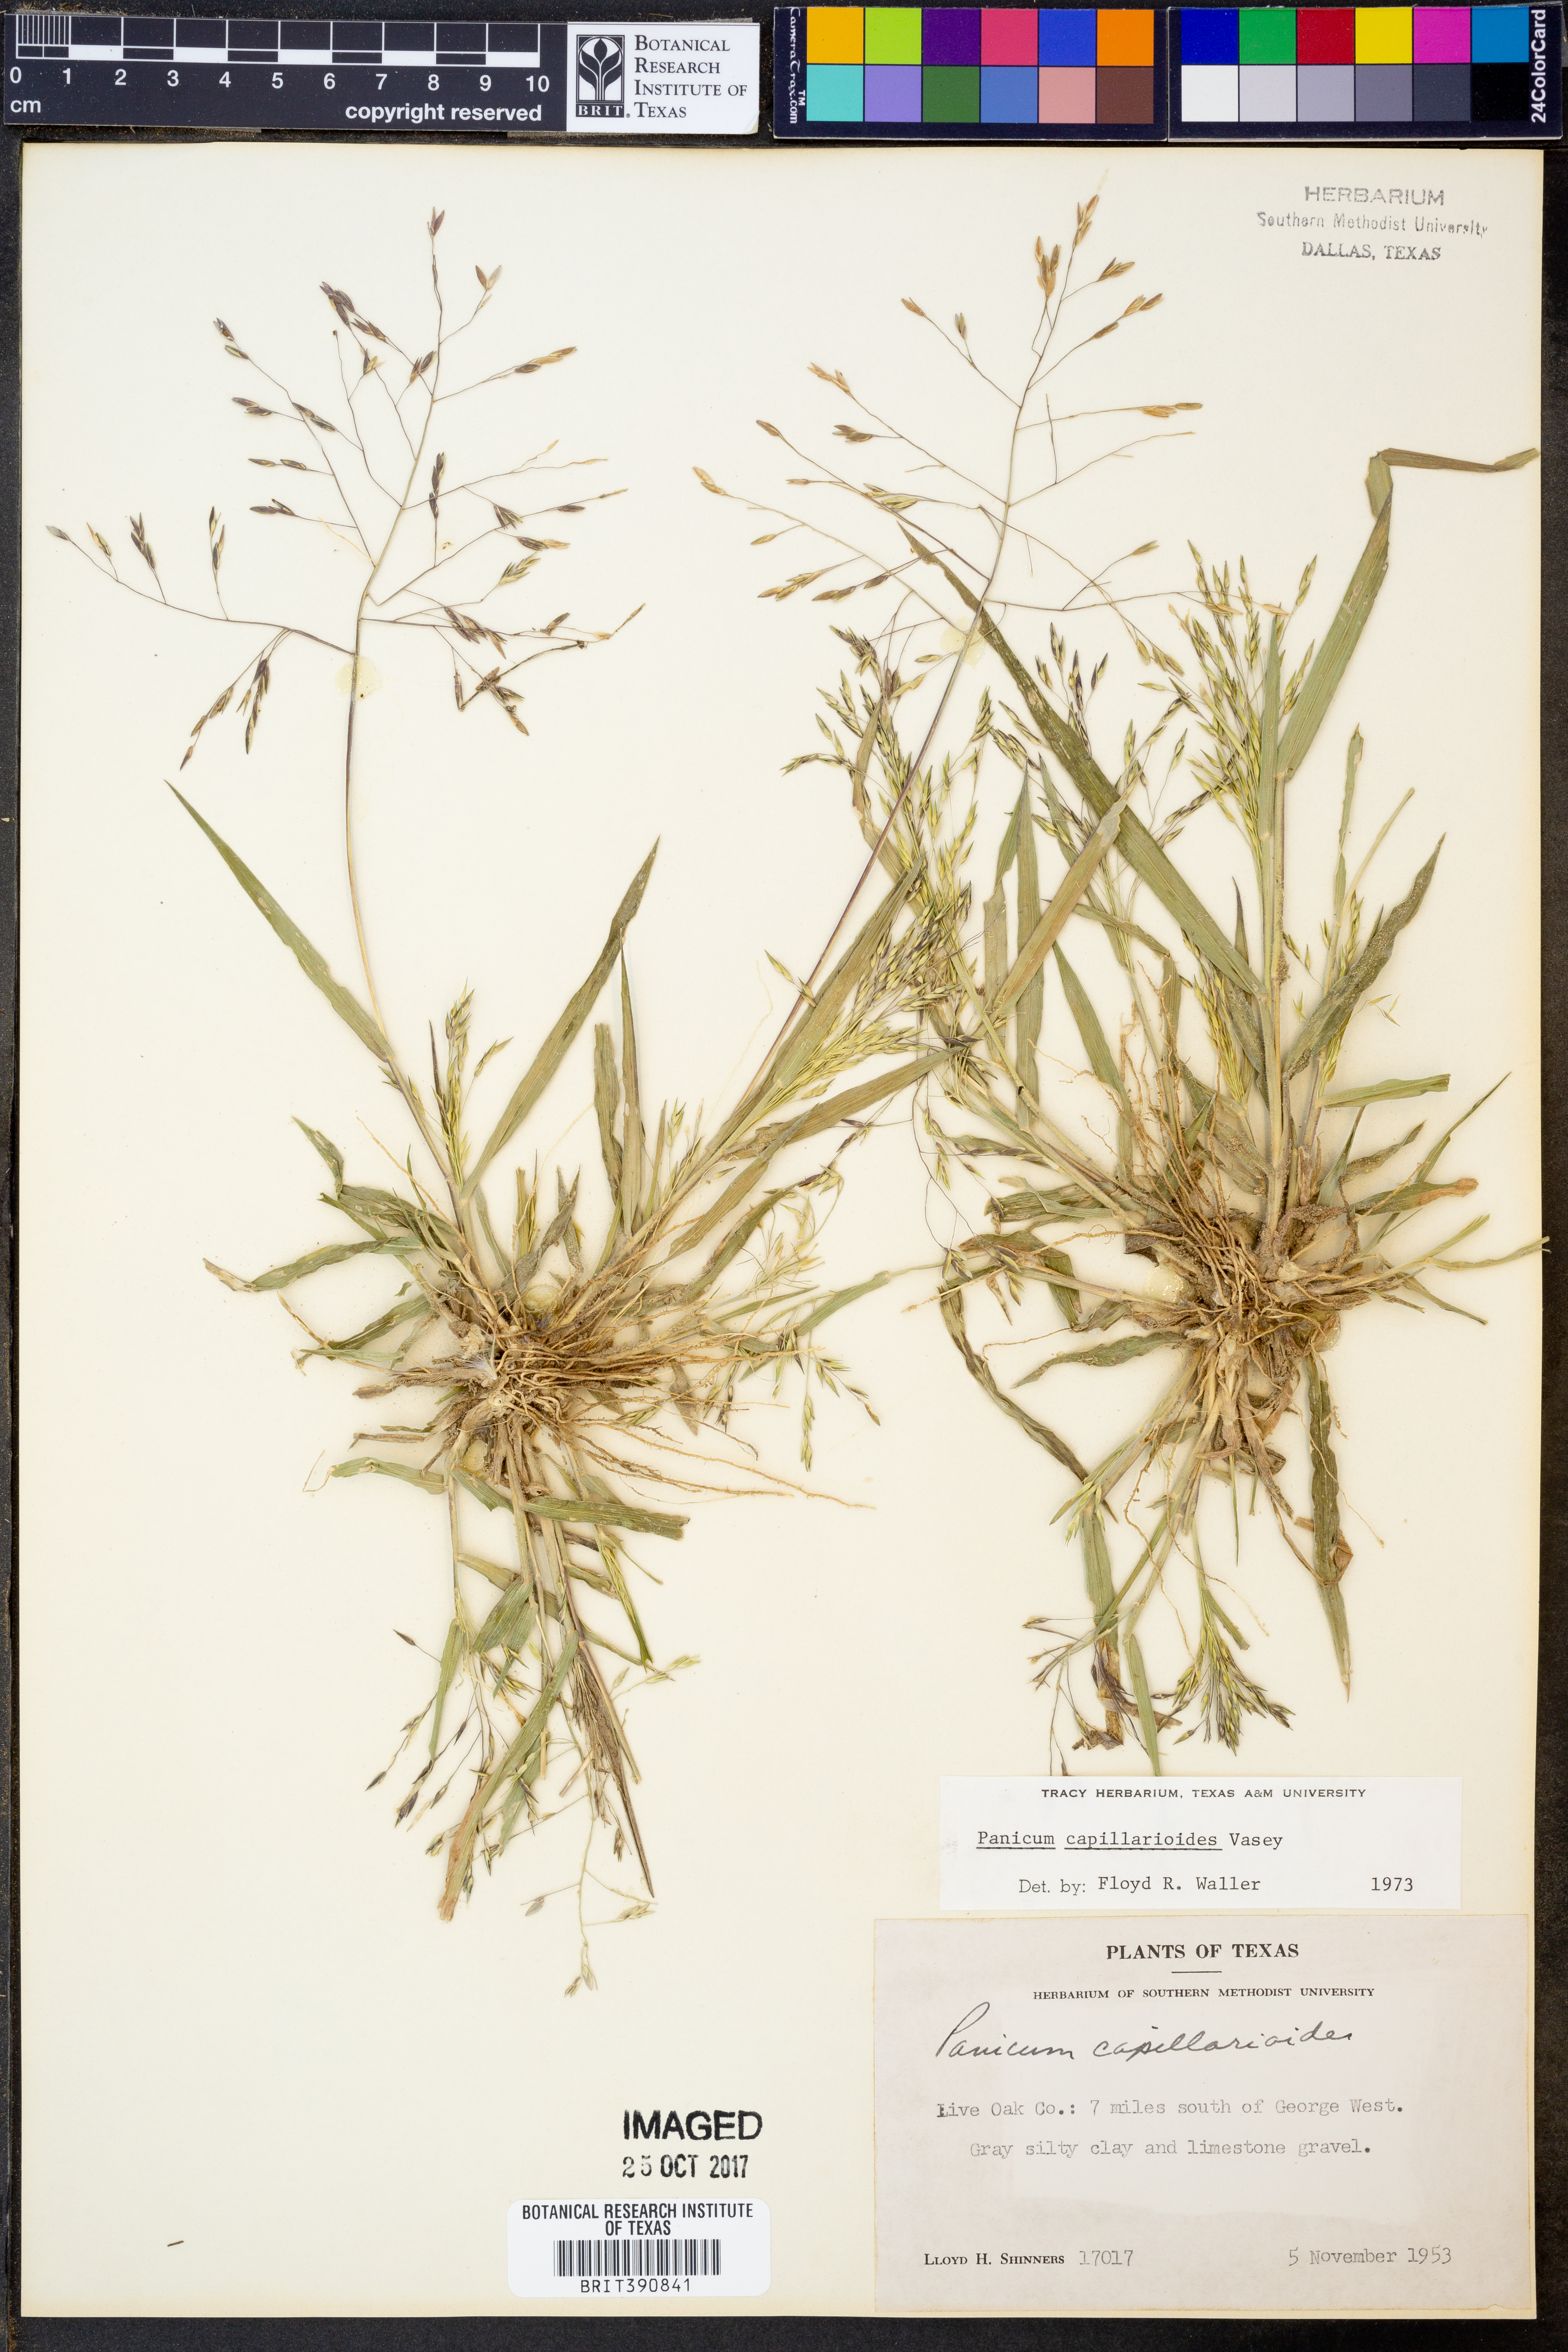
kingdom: Plantae
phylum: Tracheophyta
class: Liliopsida
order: Poales
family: Poaceae
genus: Panicum
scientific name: Panicum capillarioides
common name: Long-beak witchgrass
